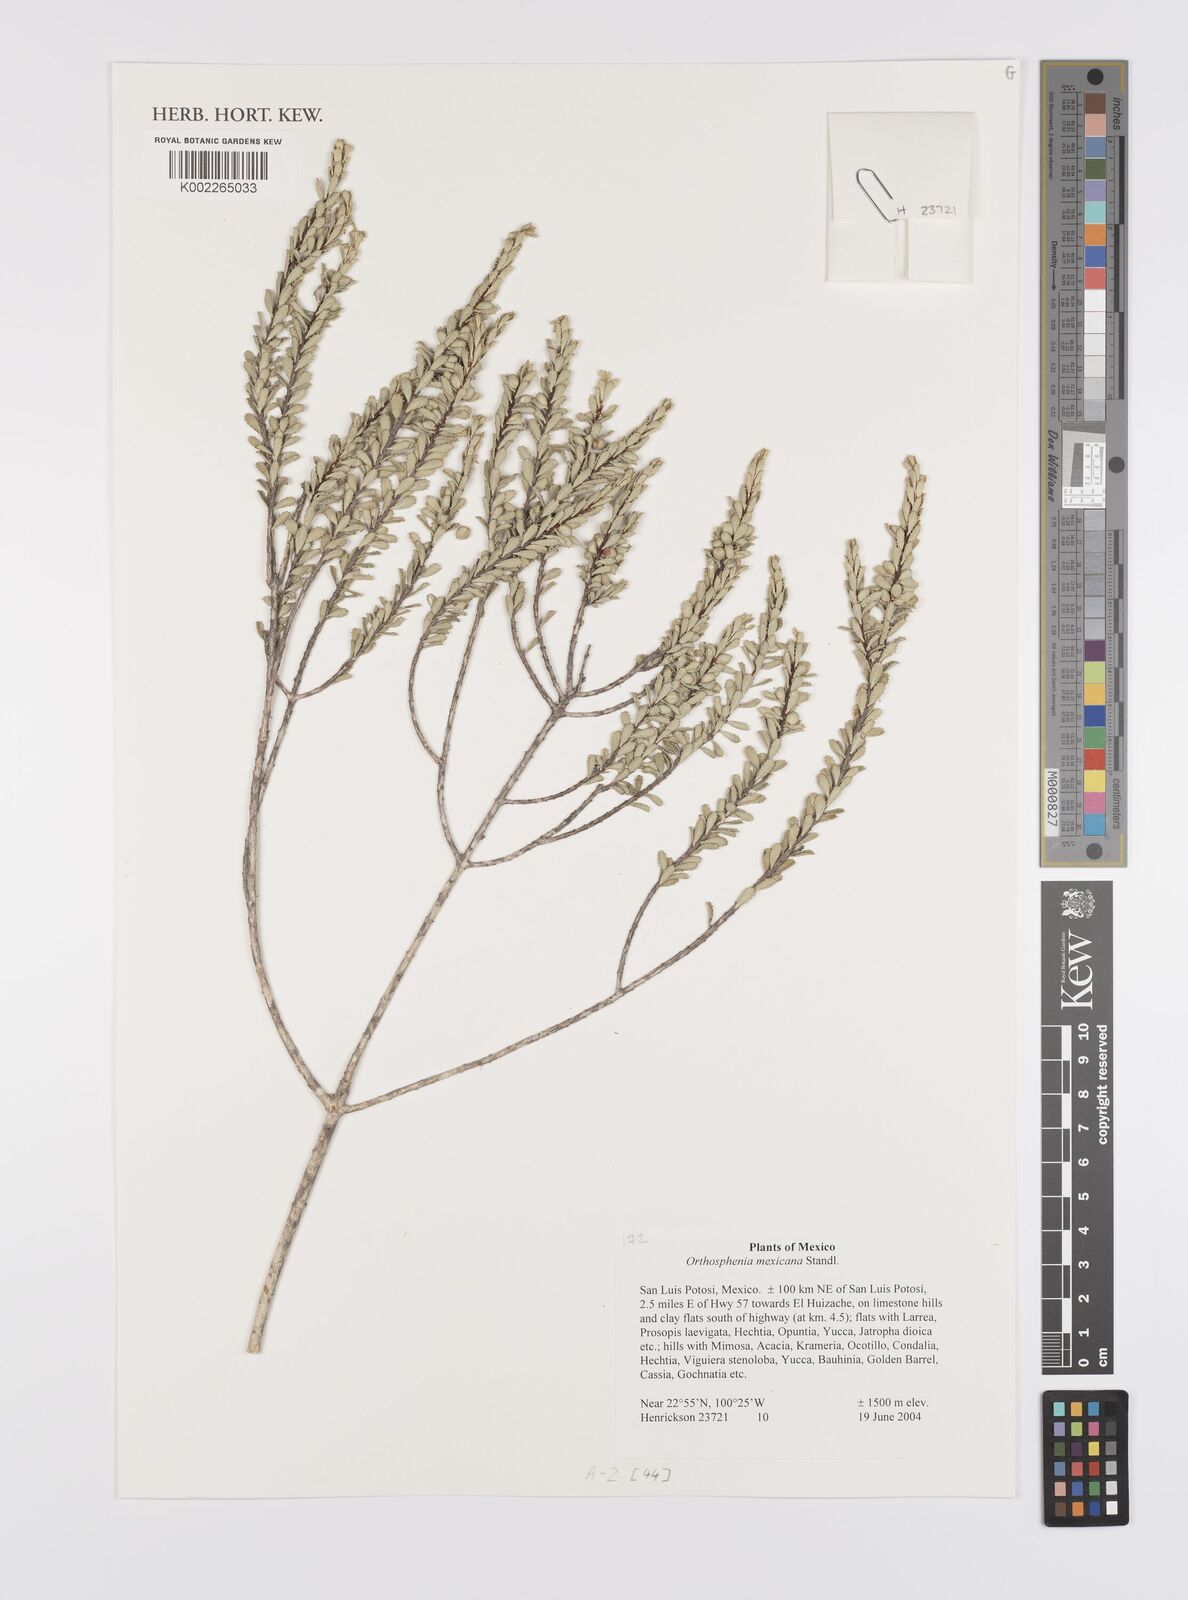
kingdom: Plantae
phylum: Tracheophyta
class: Magnoliopsida
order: Celastrales
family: Celastraceae
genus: Orthosphenia
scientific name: Orthosphenia mexicana
